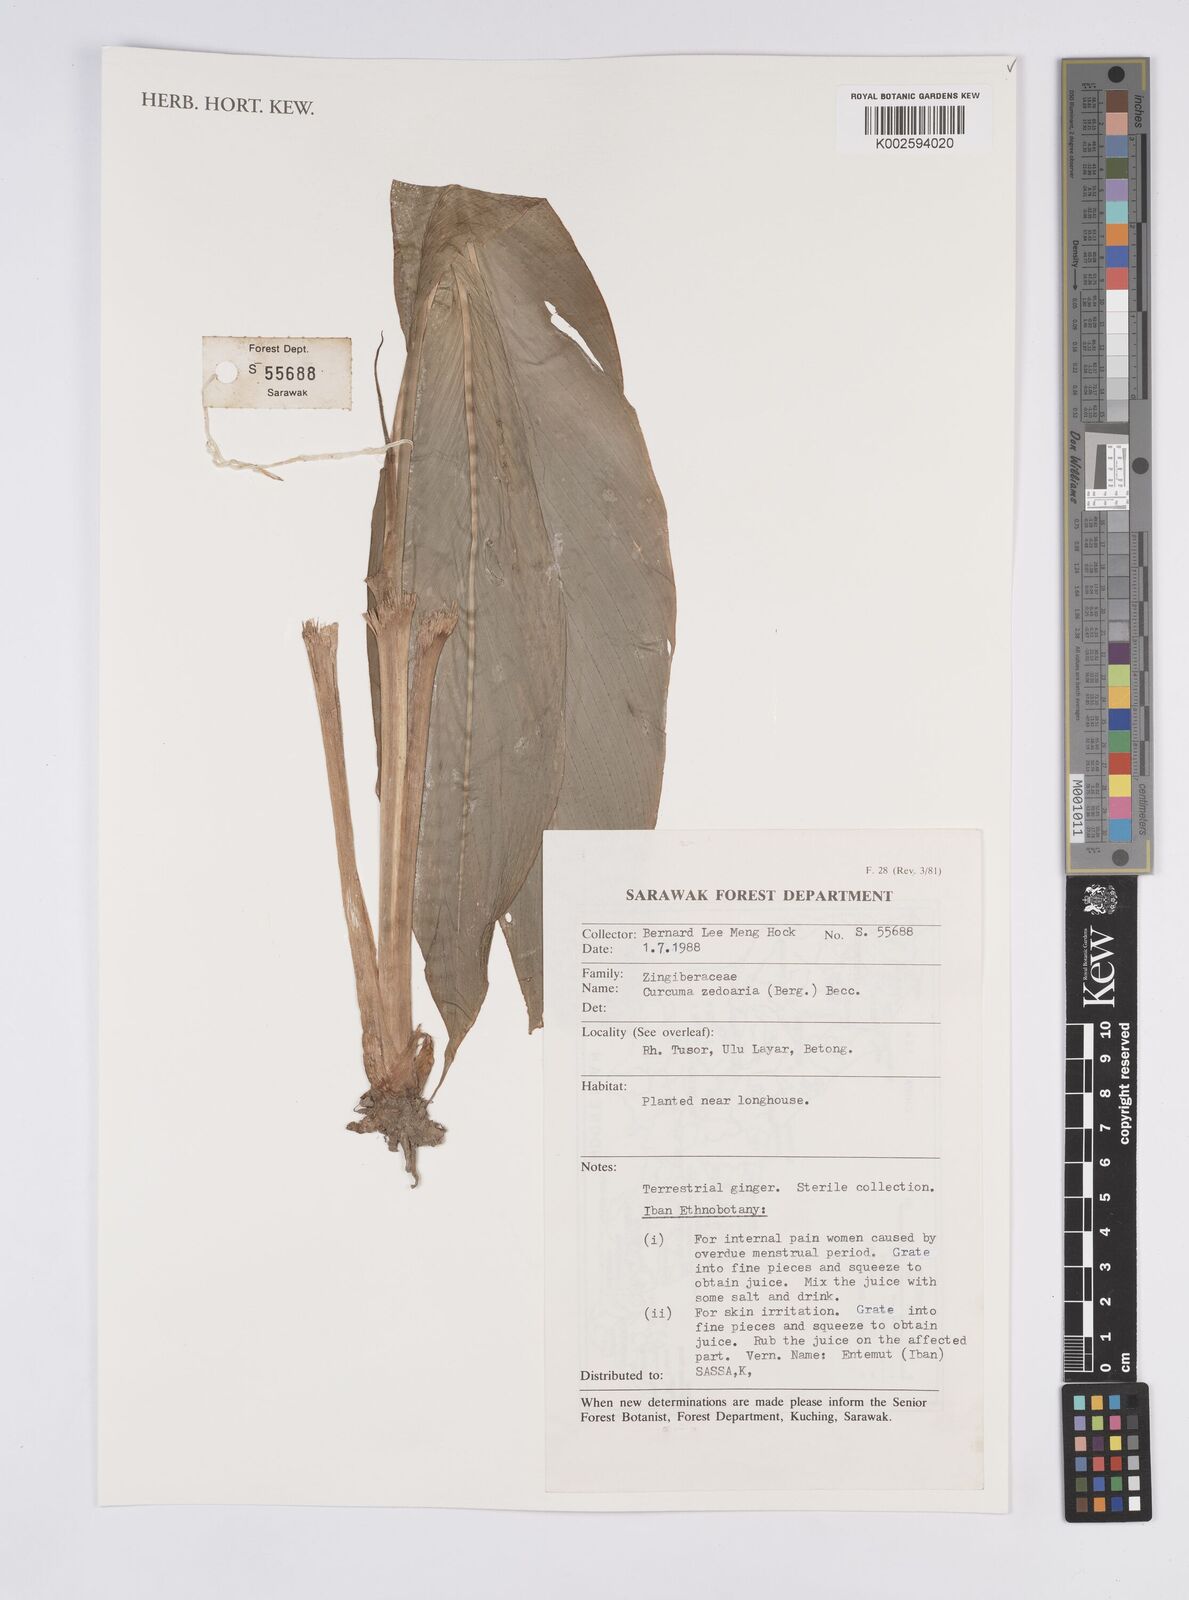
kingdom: Plantae
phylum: Tracheophyta
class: Liliopsida
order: Zingiberales
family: Zingiberaceae
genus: Curcuma
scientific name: Curcuma zedoaria
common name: Zedoary
